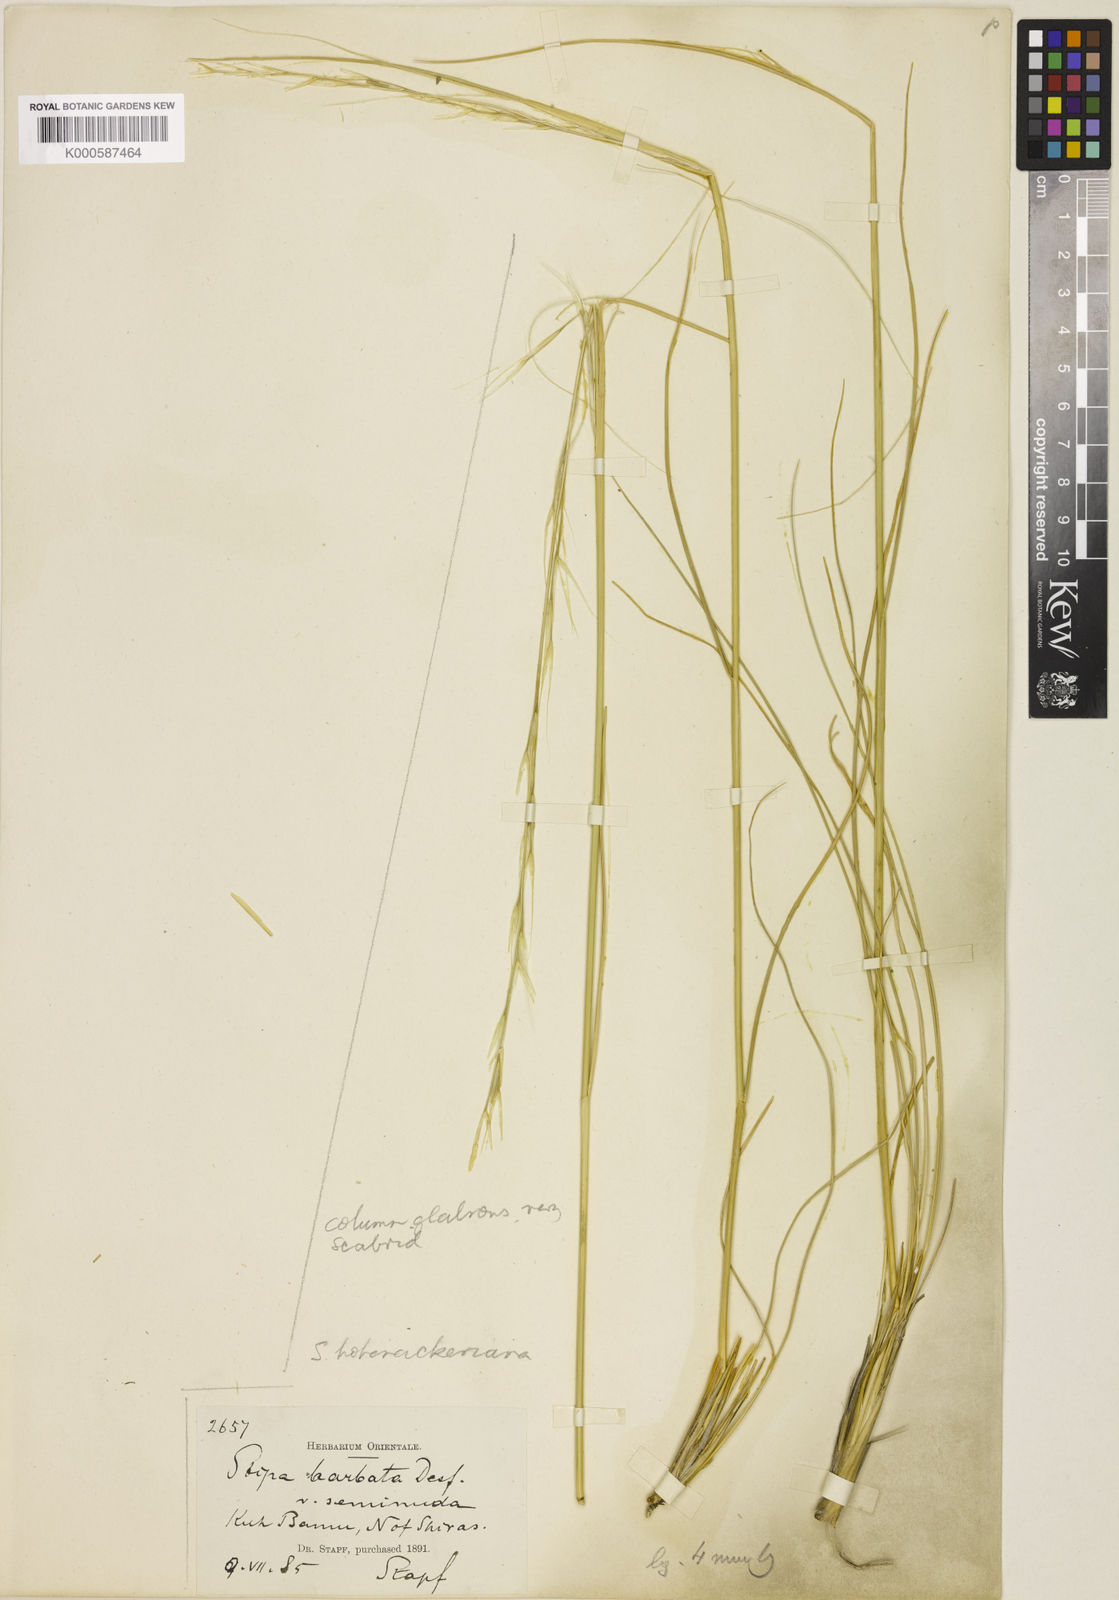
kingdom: Plantae
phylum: Tracheophyta
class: Liliopsida
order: Poales
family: Poaceae
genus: Stipa
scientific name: Stipa barbata
